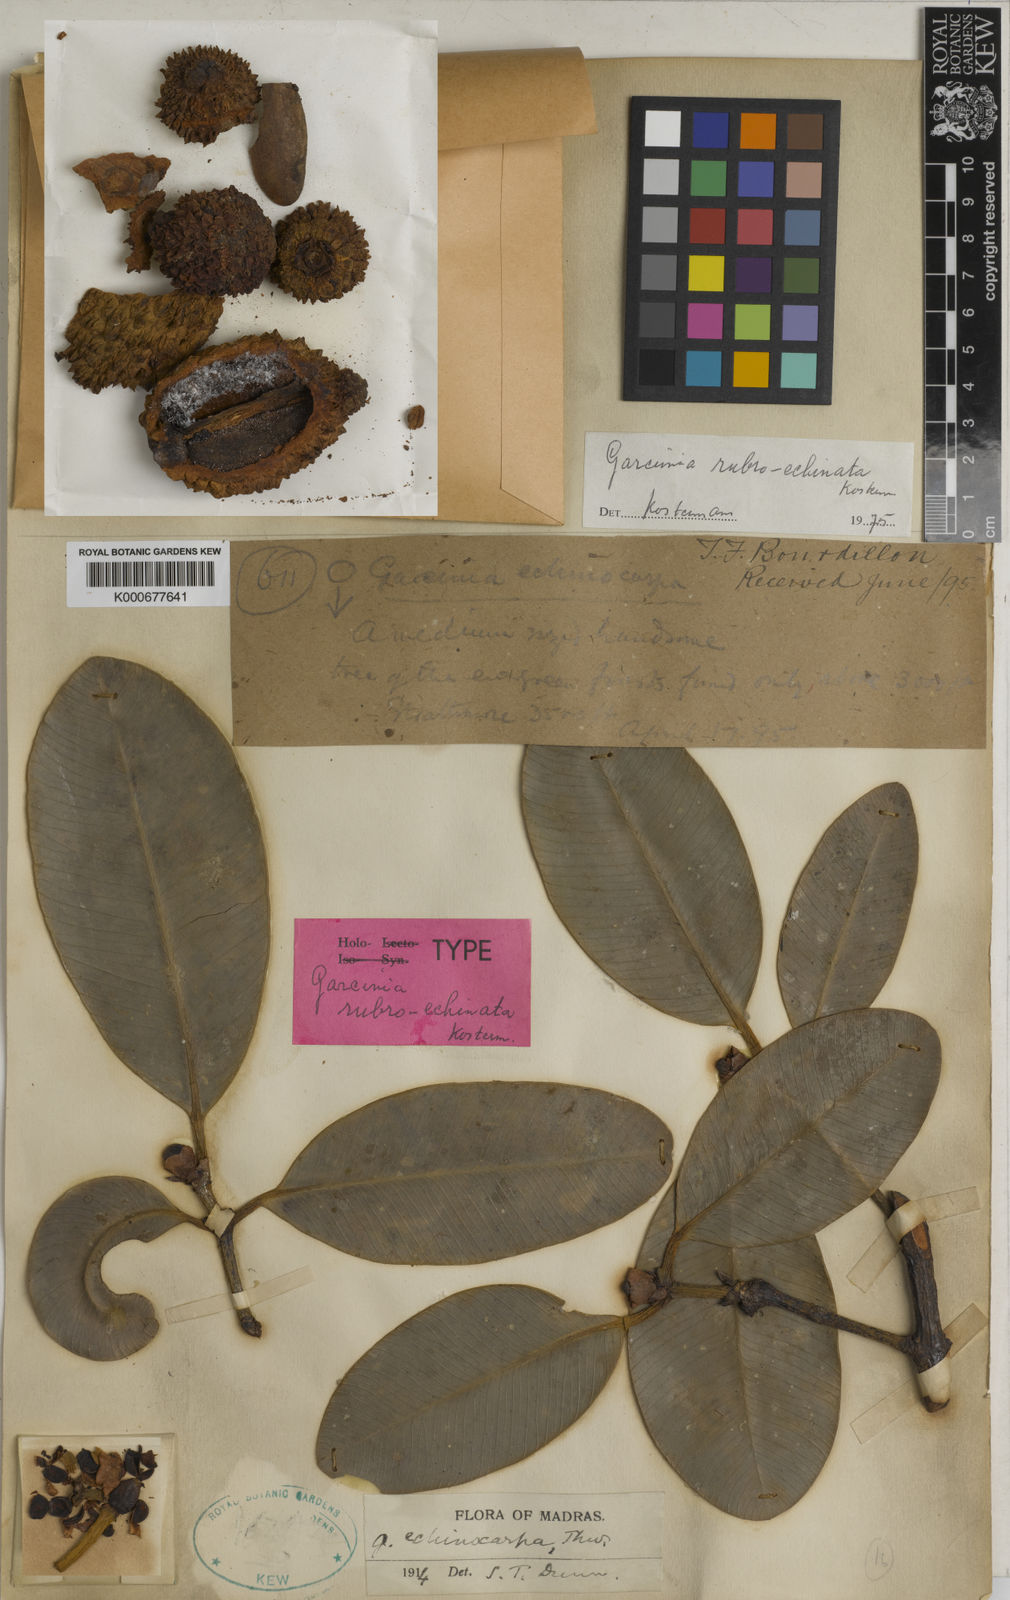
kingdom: Plantae
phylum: Tracheophyta
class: Magnoliopsida
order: Malpighiales
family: Clusiaceae
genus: Garcinia
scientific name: Garcinia rubroechinata
